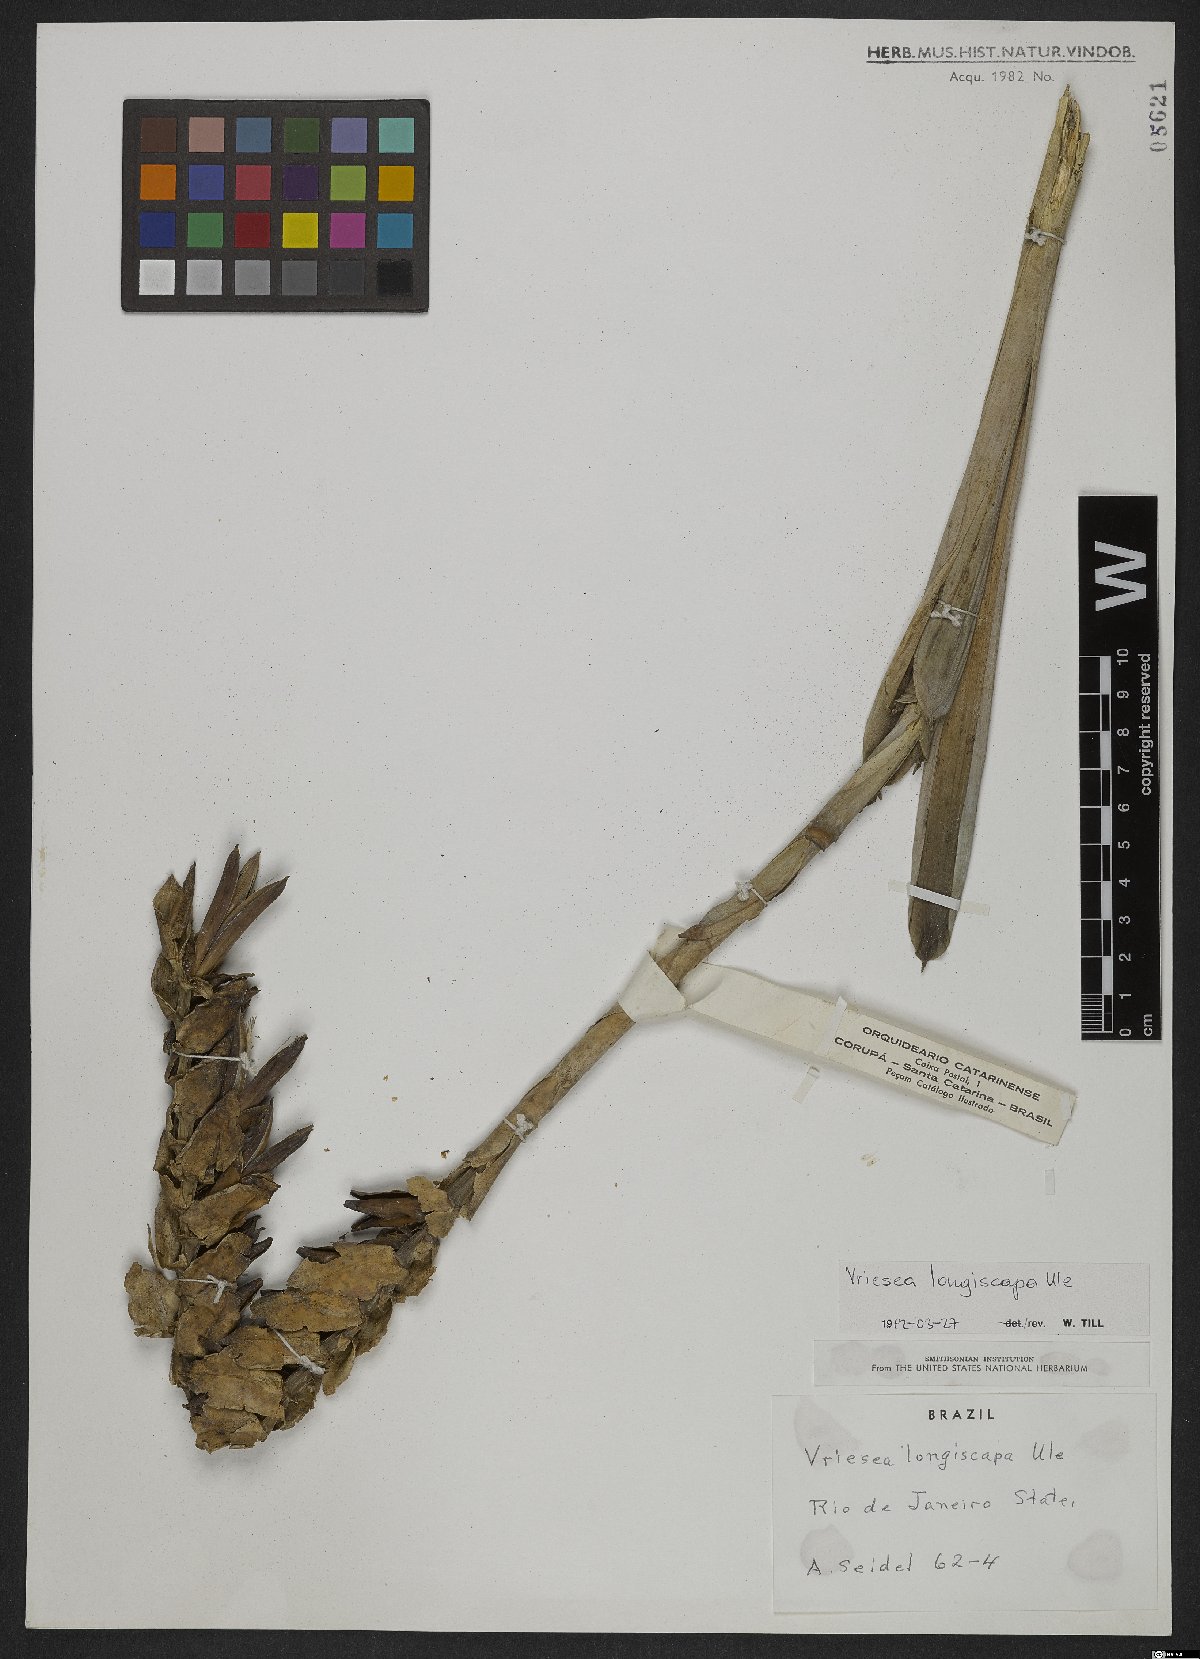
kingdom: Plantae
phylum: Tracheophyta
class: Liliopsida
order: Poales
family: Bromeliaceae
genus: Vriesea
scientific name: Vriesea longiscapa
